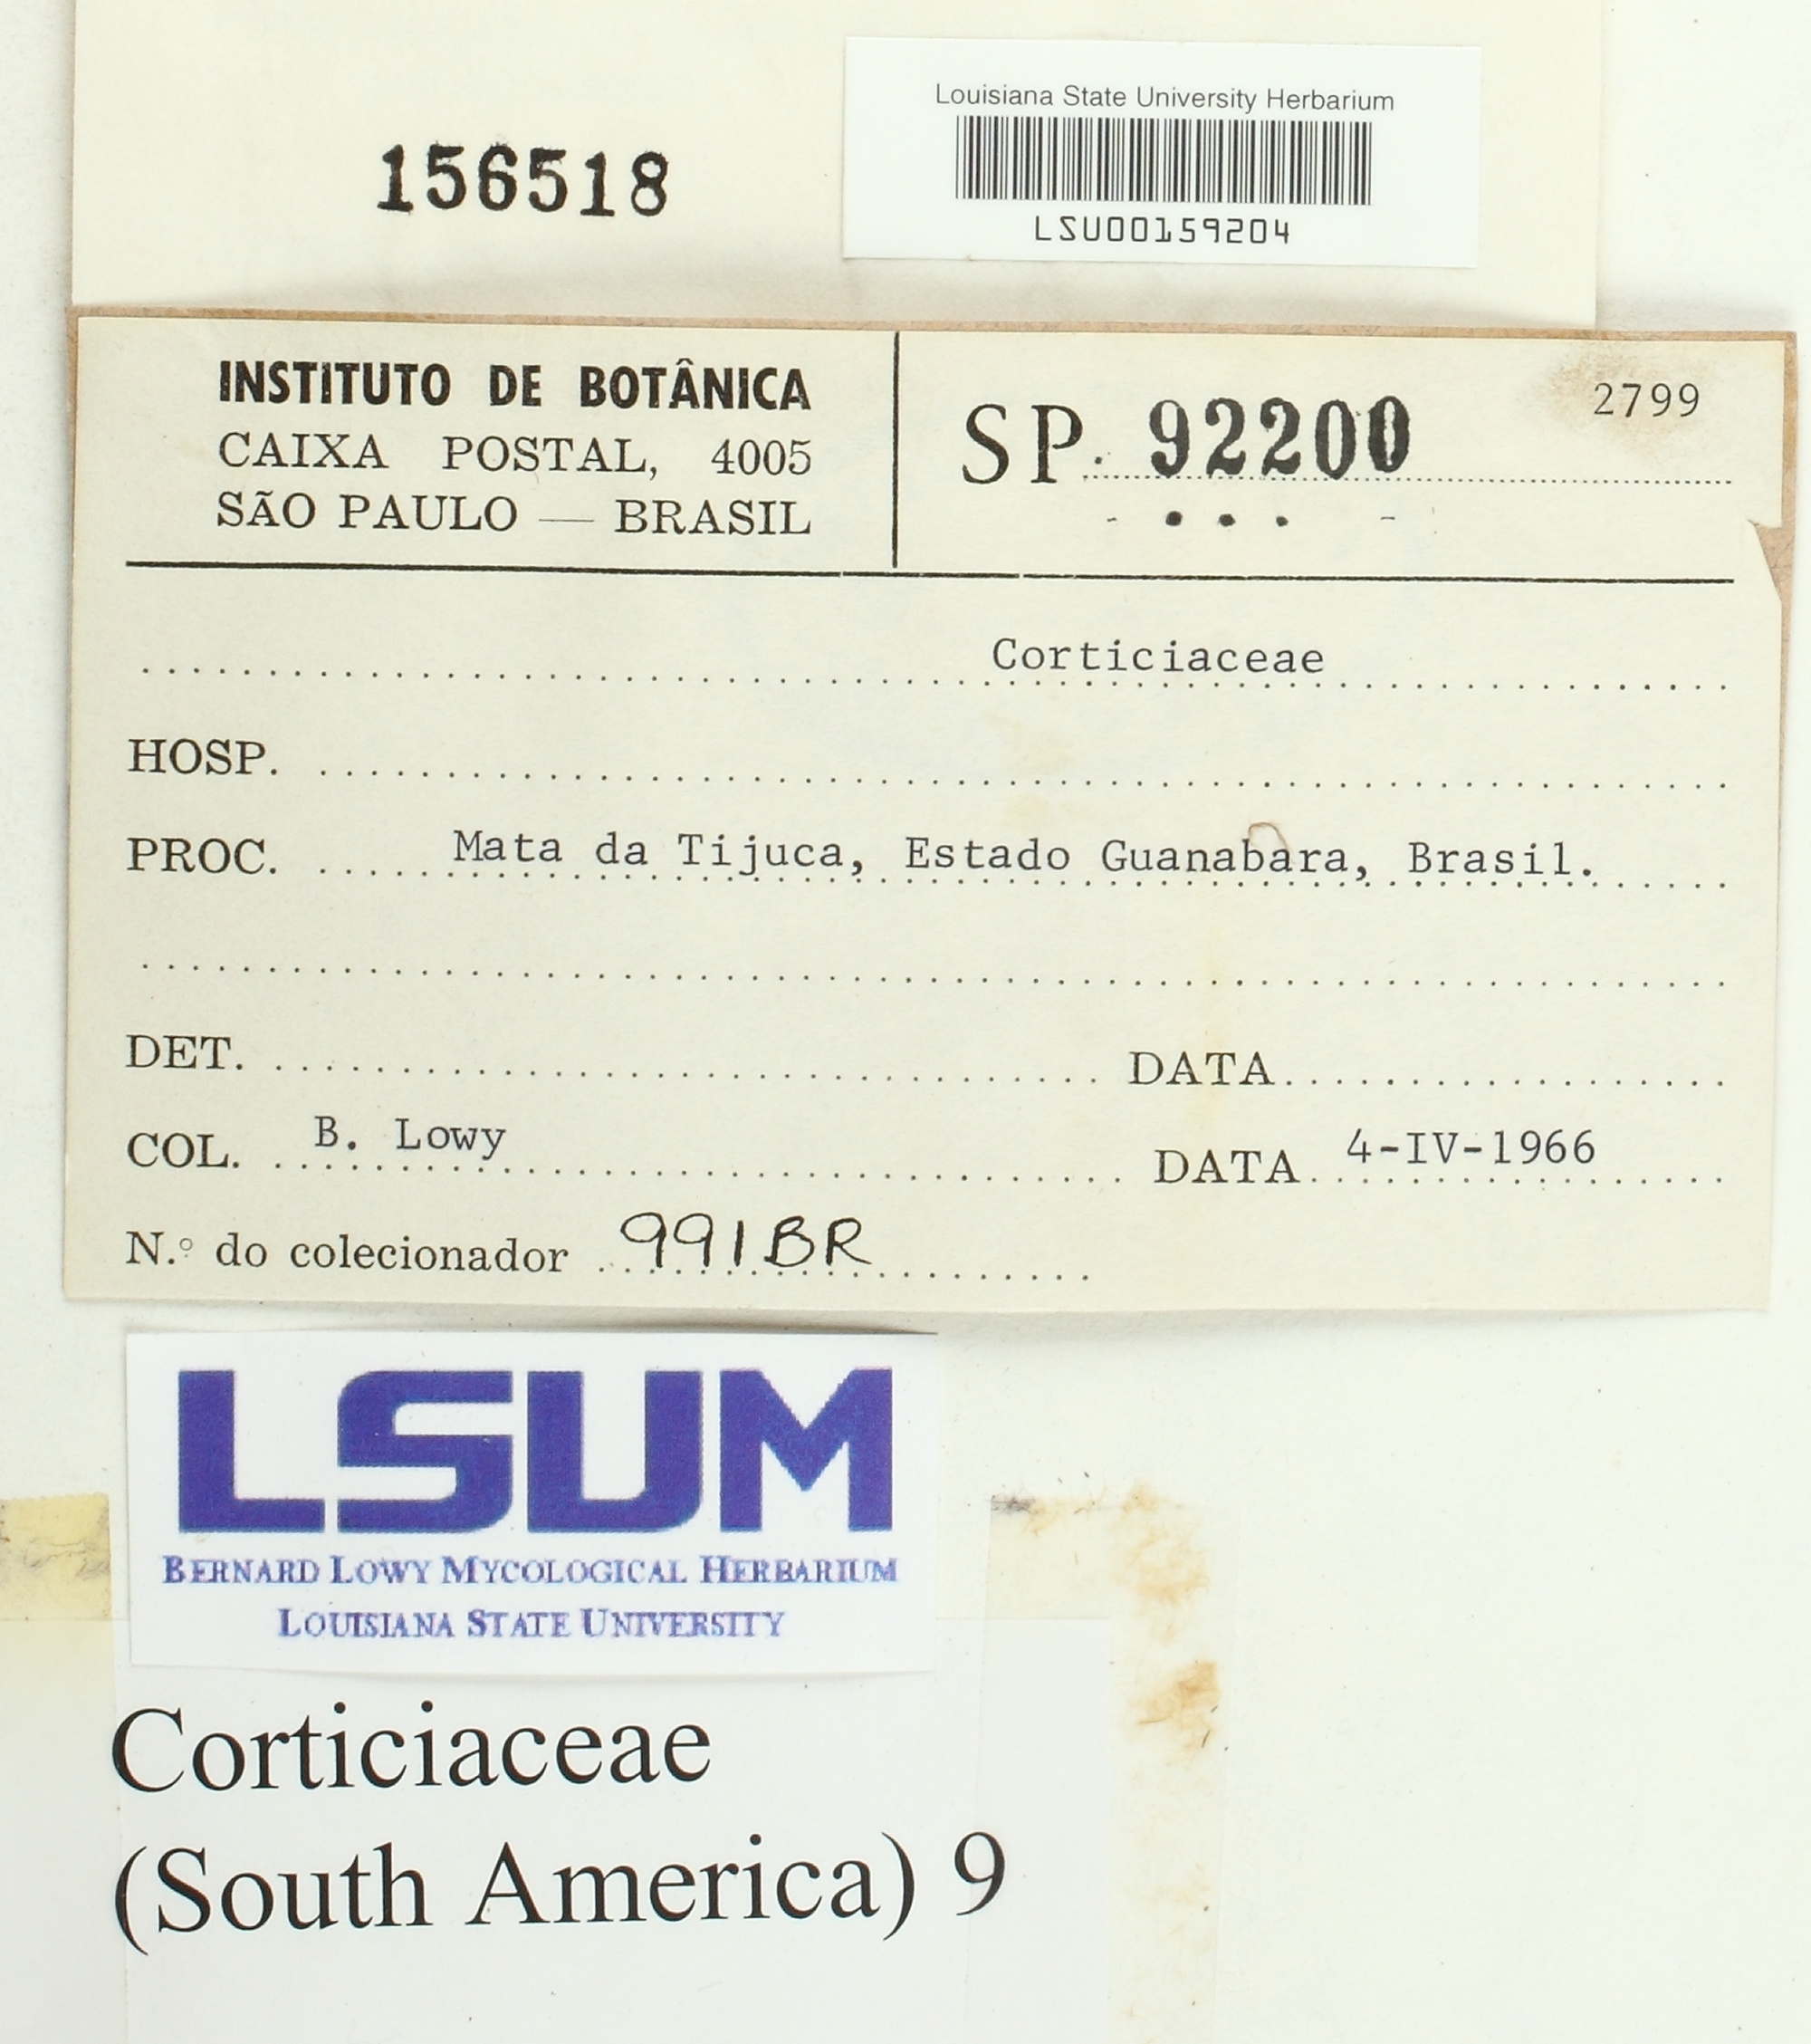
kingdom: Fungi
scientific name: Fungi
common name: Fungi
